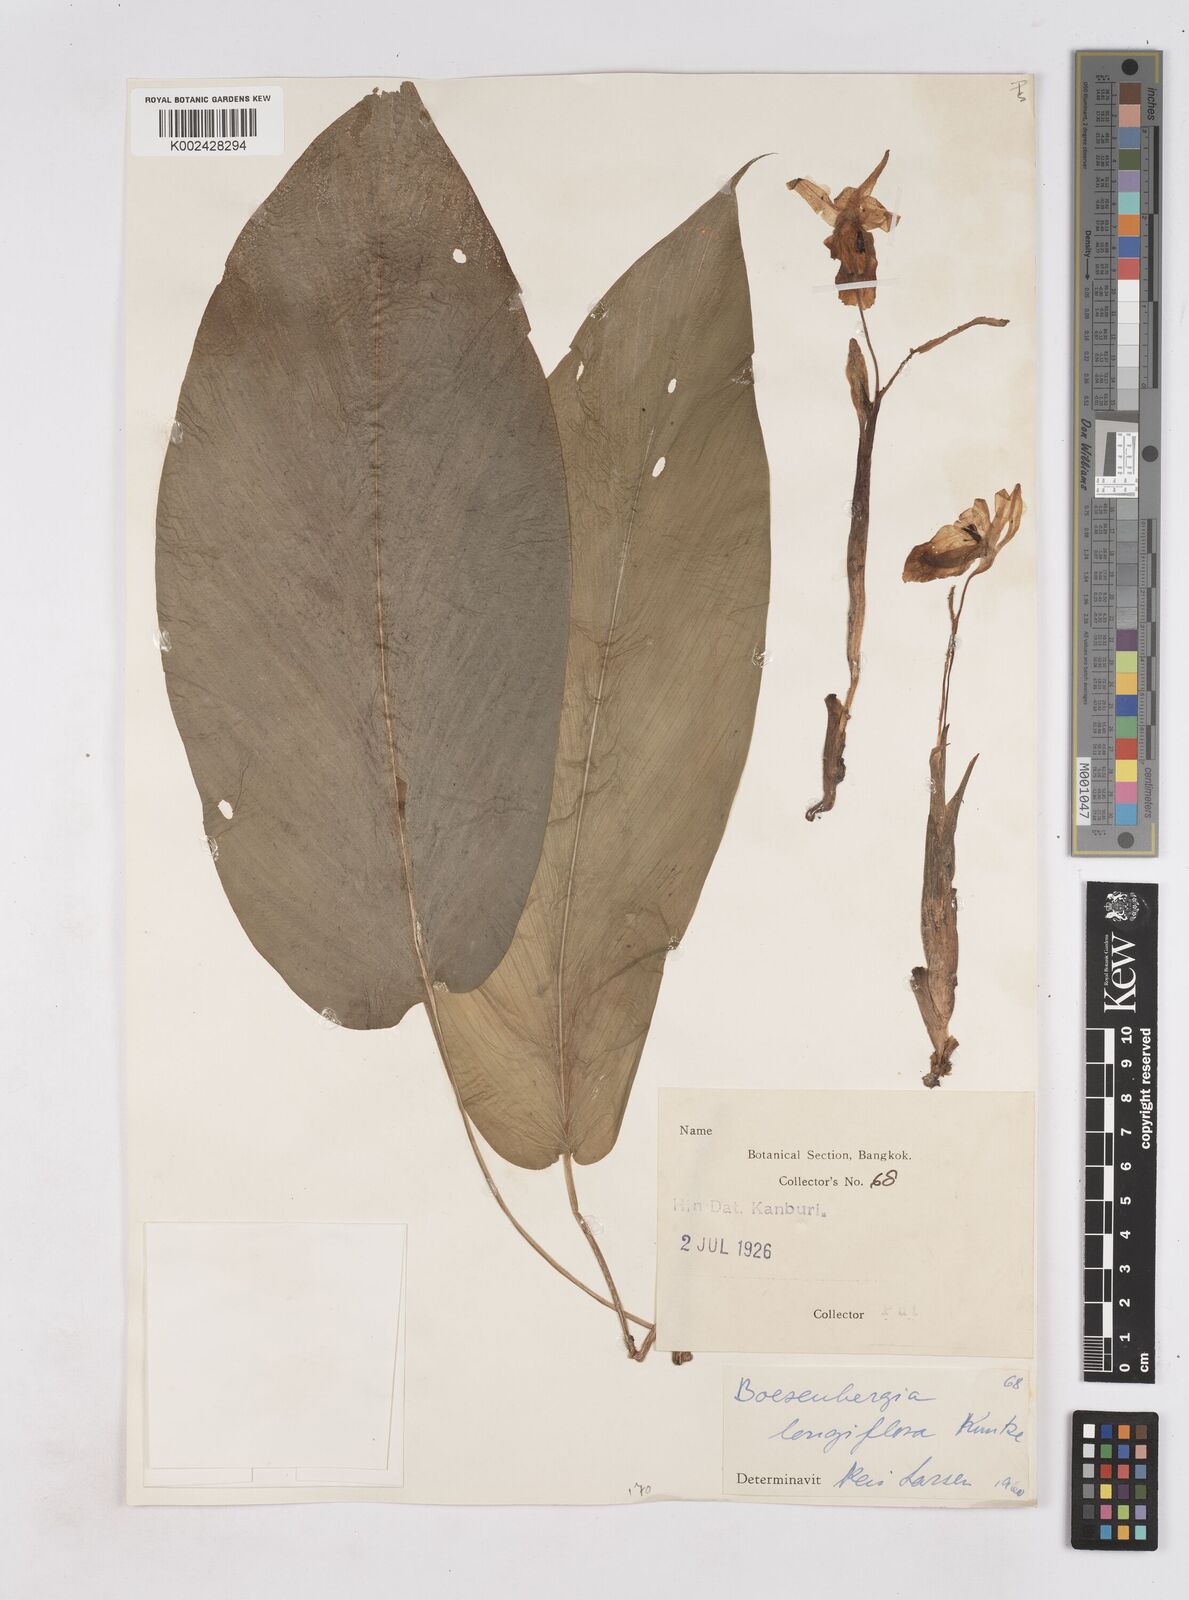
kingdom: Plantae
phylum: Tracheophyta
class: Liliopsida
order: Zingiberales
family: Zingiberaceae
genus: Boesenbergia
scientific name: Boesenbergia longiflora
